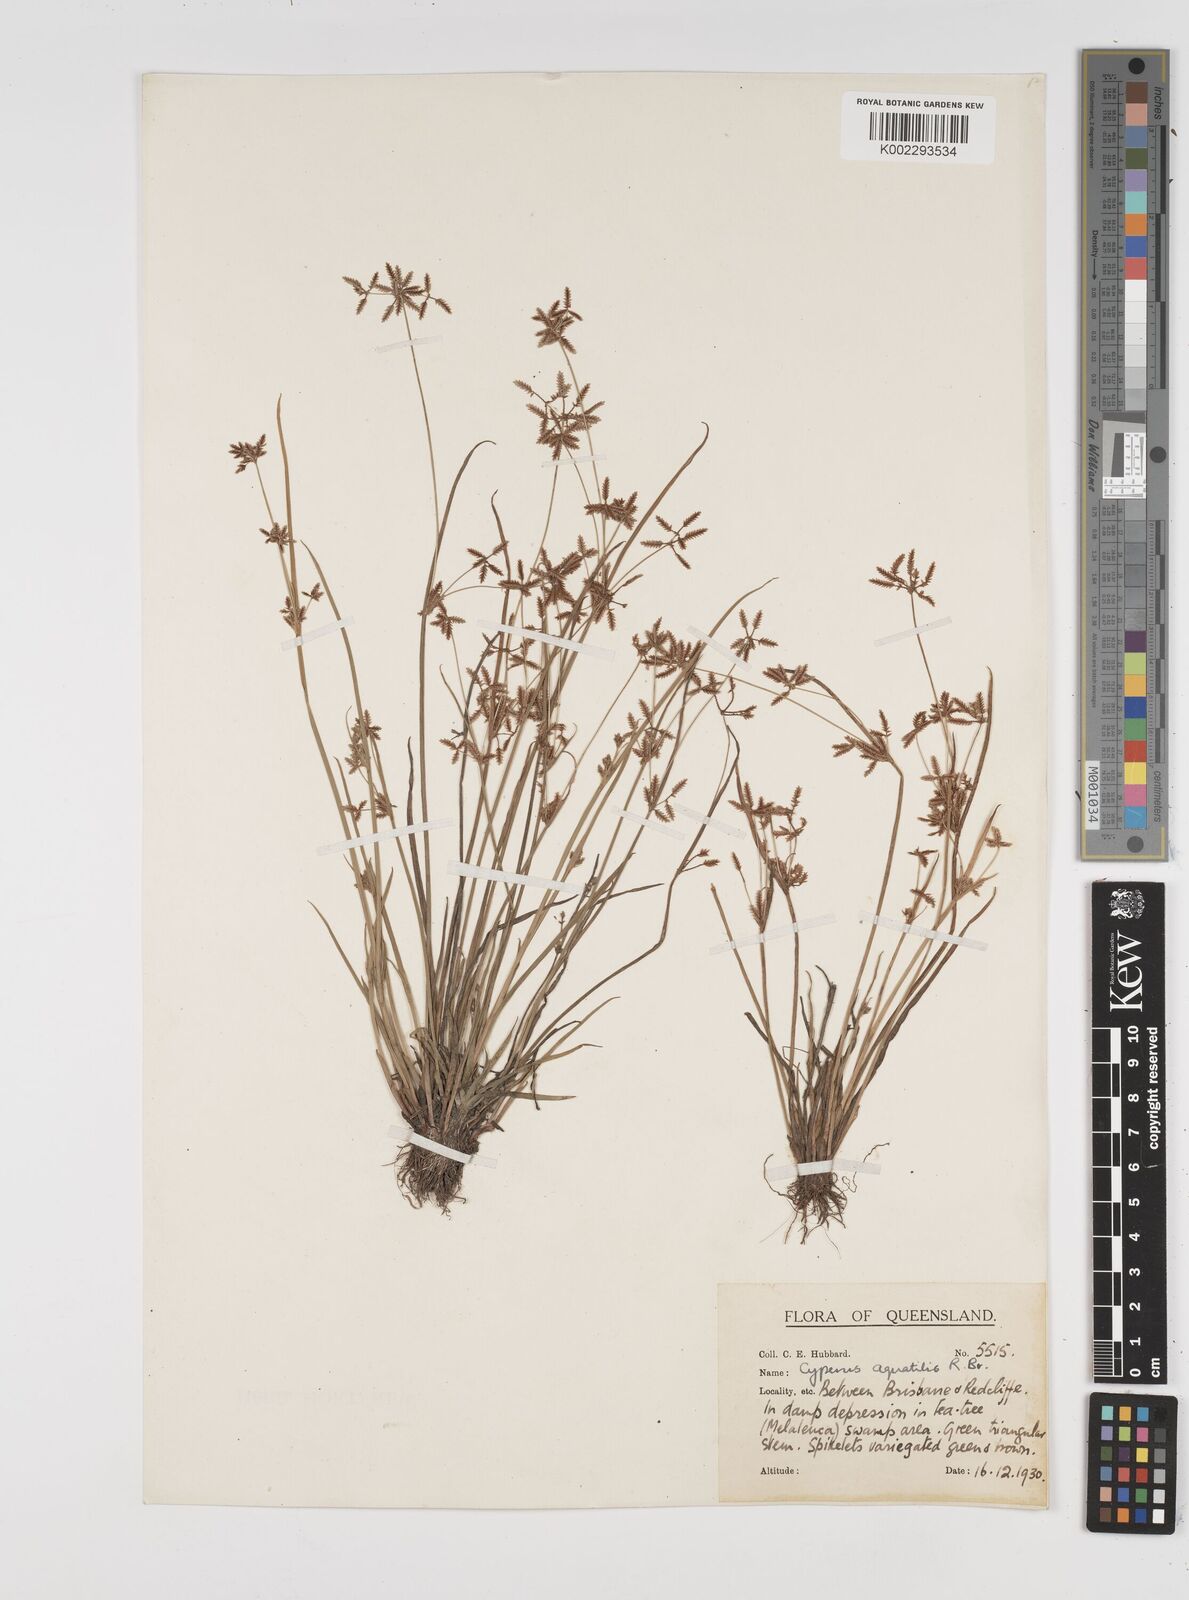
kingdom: Plantae
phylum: Tracheophyta
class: Liliopsida
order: Poales
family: Cyperaceae
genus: Cyperus
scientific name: Cyperus aquatilis
